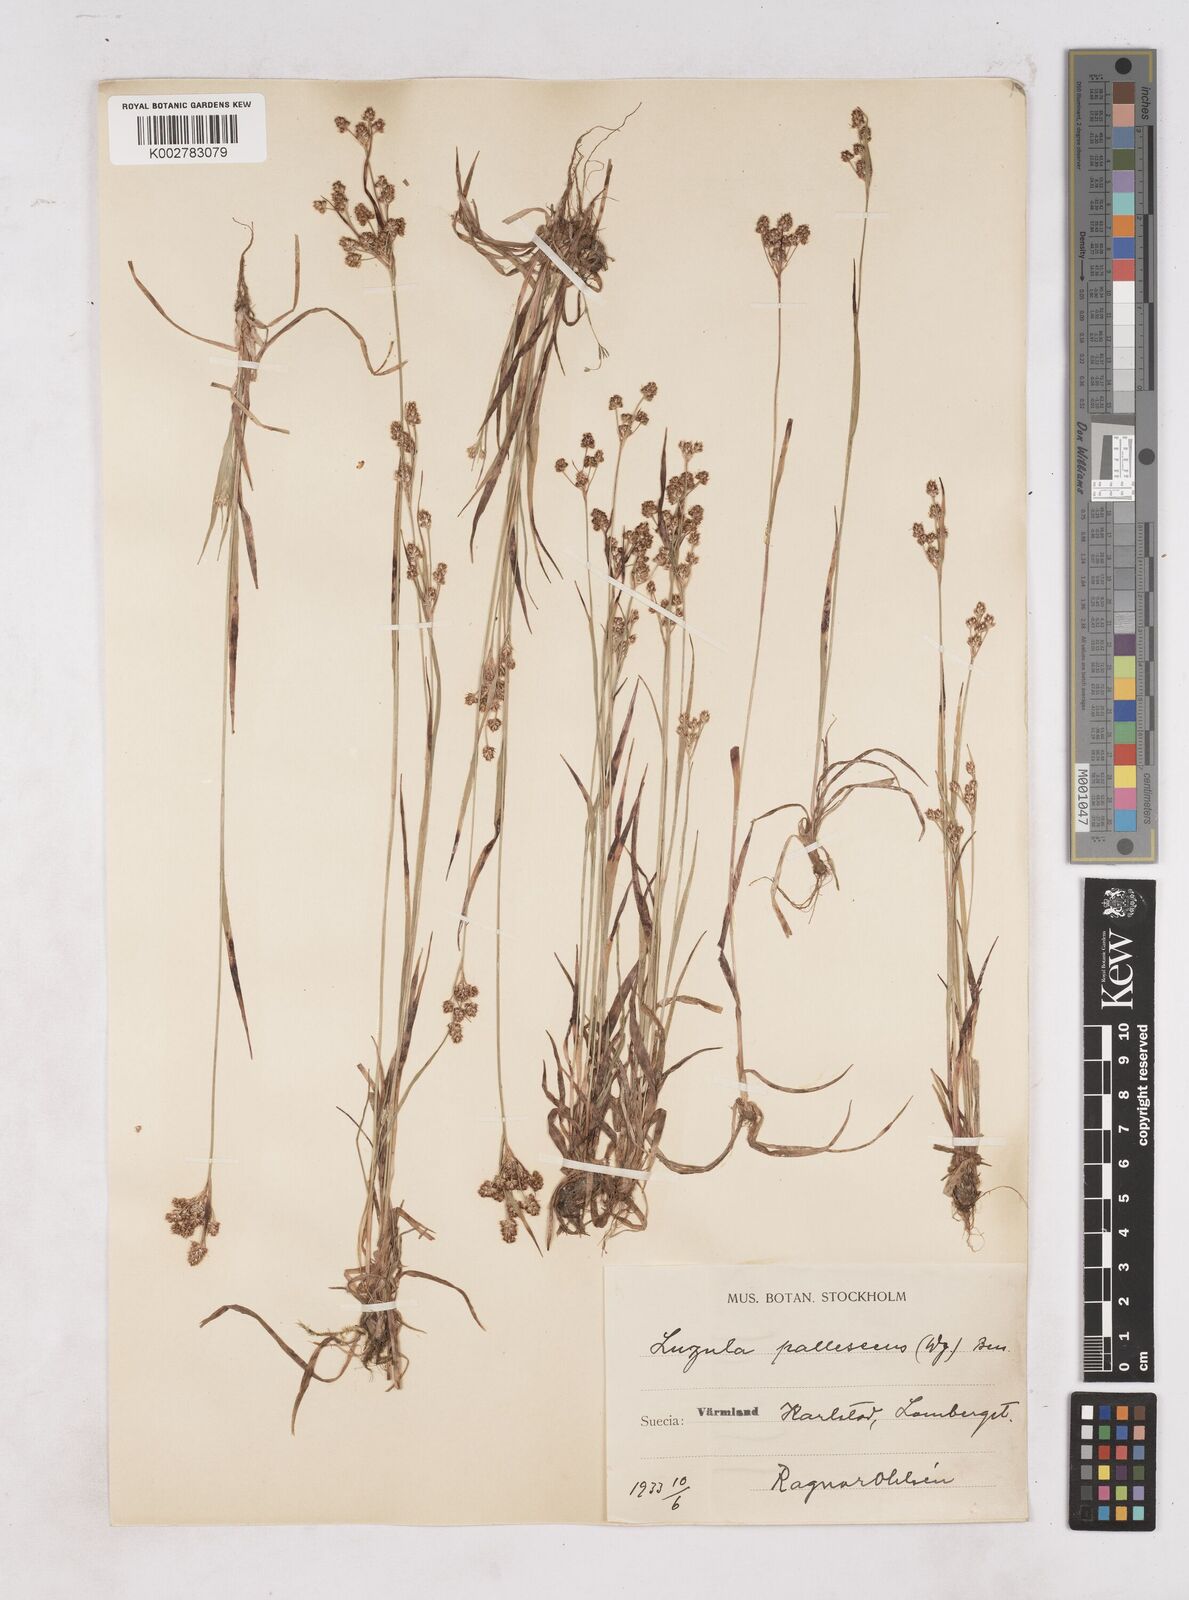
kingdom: Plantae
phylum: Tracheophyta
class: Liliopsida
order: Poales
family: Juncaceae
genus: Luzula
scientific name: Luzula pallescens
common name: Fen wood-rush
